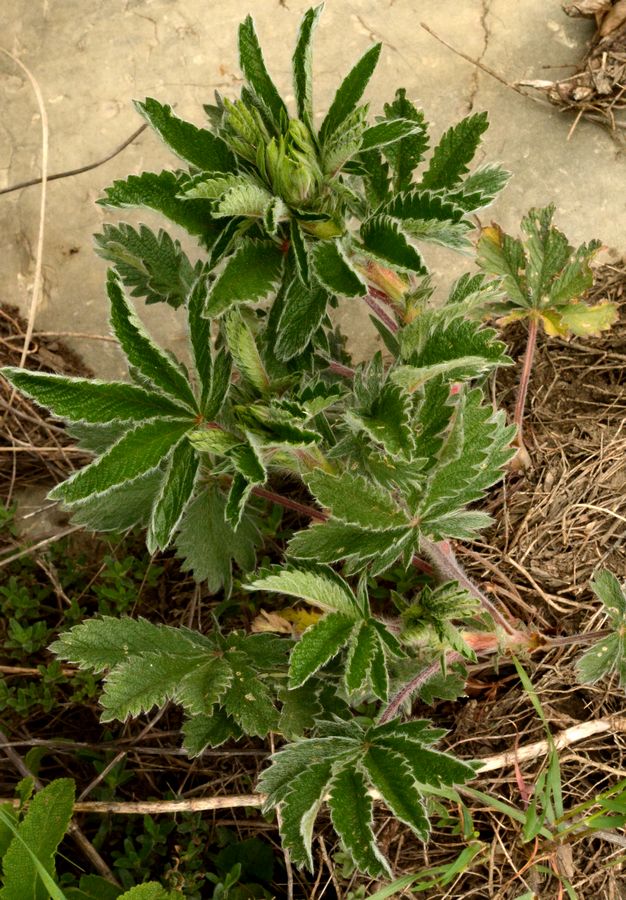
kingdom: Plantae
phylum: Tracheophyta
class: Magnoliopsida
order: Rosales
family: Rosaceae
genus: Potentilla
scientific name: Potentilla astracanica
